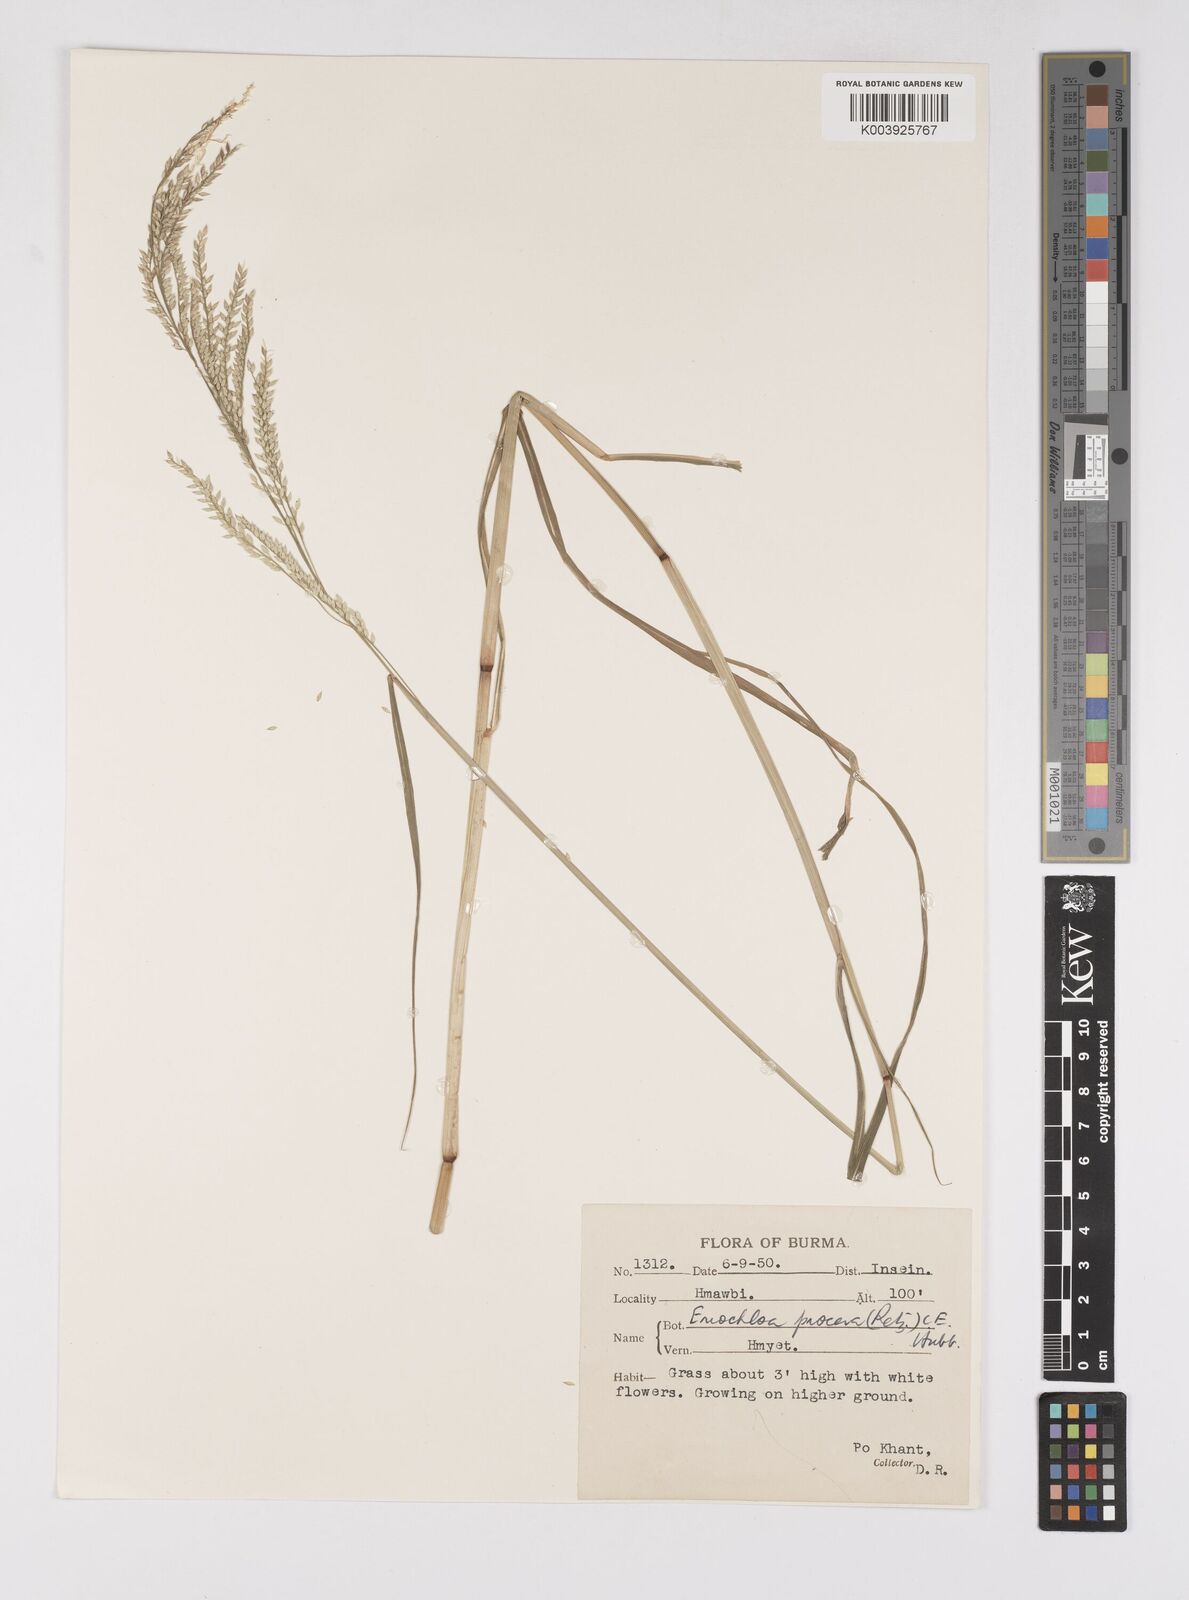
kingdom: Plantae
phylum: Tracheophyta
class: Liliopsida
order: Poales
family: Poaceae
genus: Eriochloa
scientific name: Eriochloa procera
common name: Spring grass
